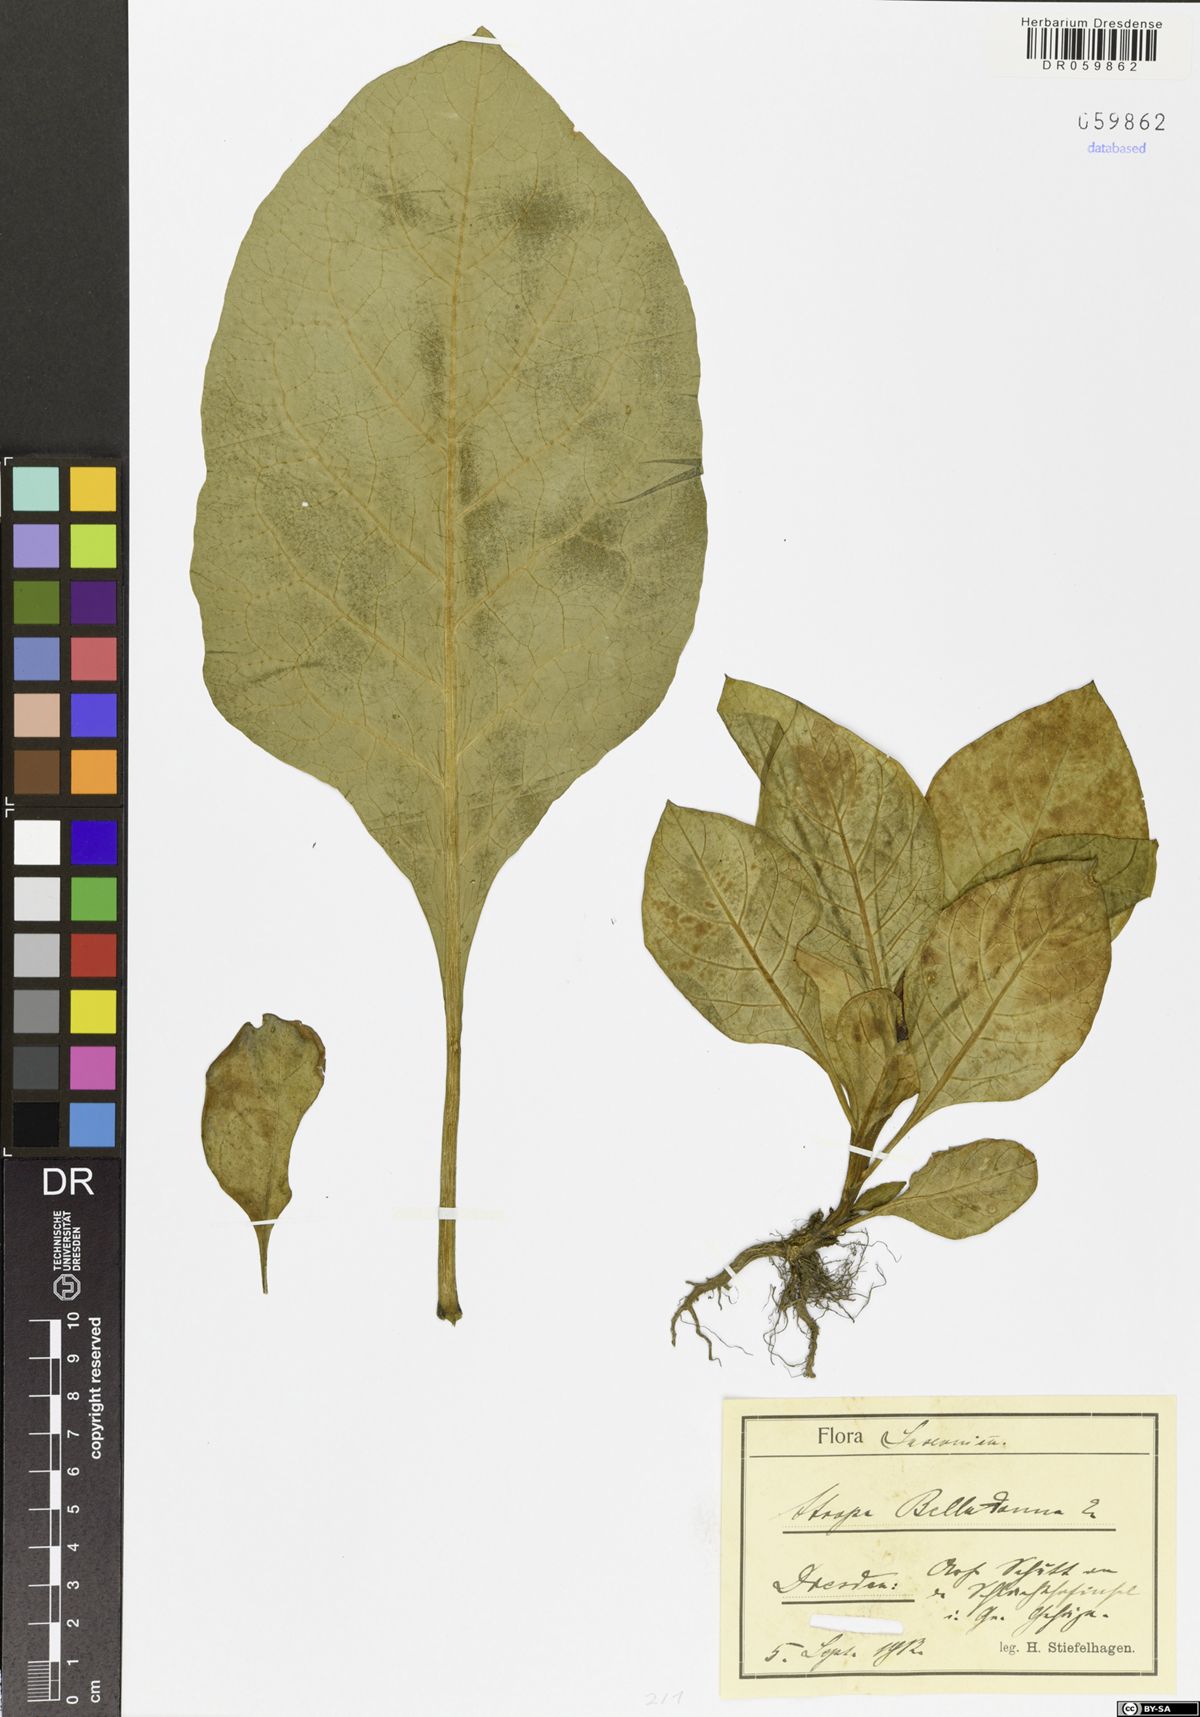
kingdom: Plantae
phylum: Tracheophyta
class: Magnoliopsida
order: Solanales
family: Solanaceae
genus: Atropa
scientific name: Atropa belladonna
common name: Deadly nightshade
